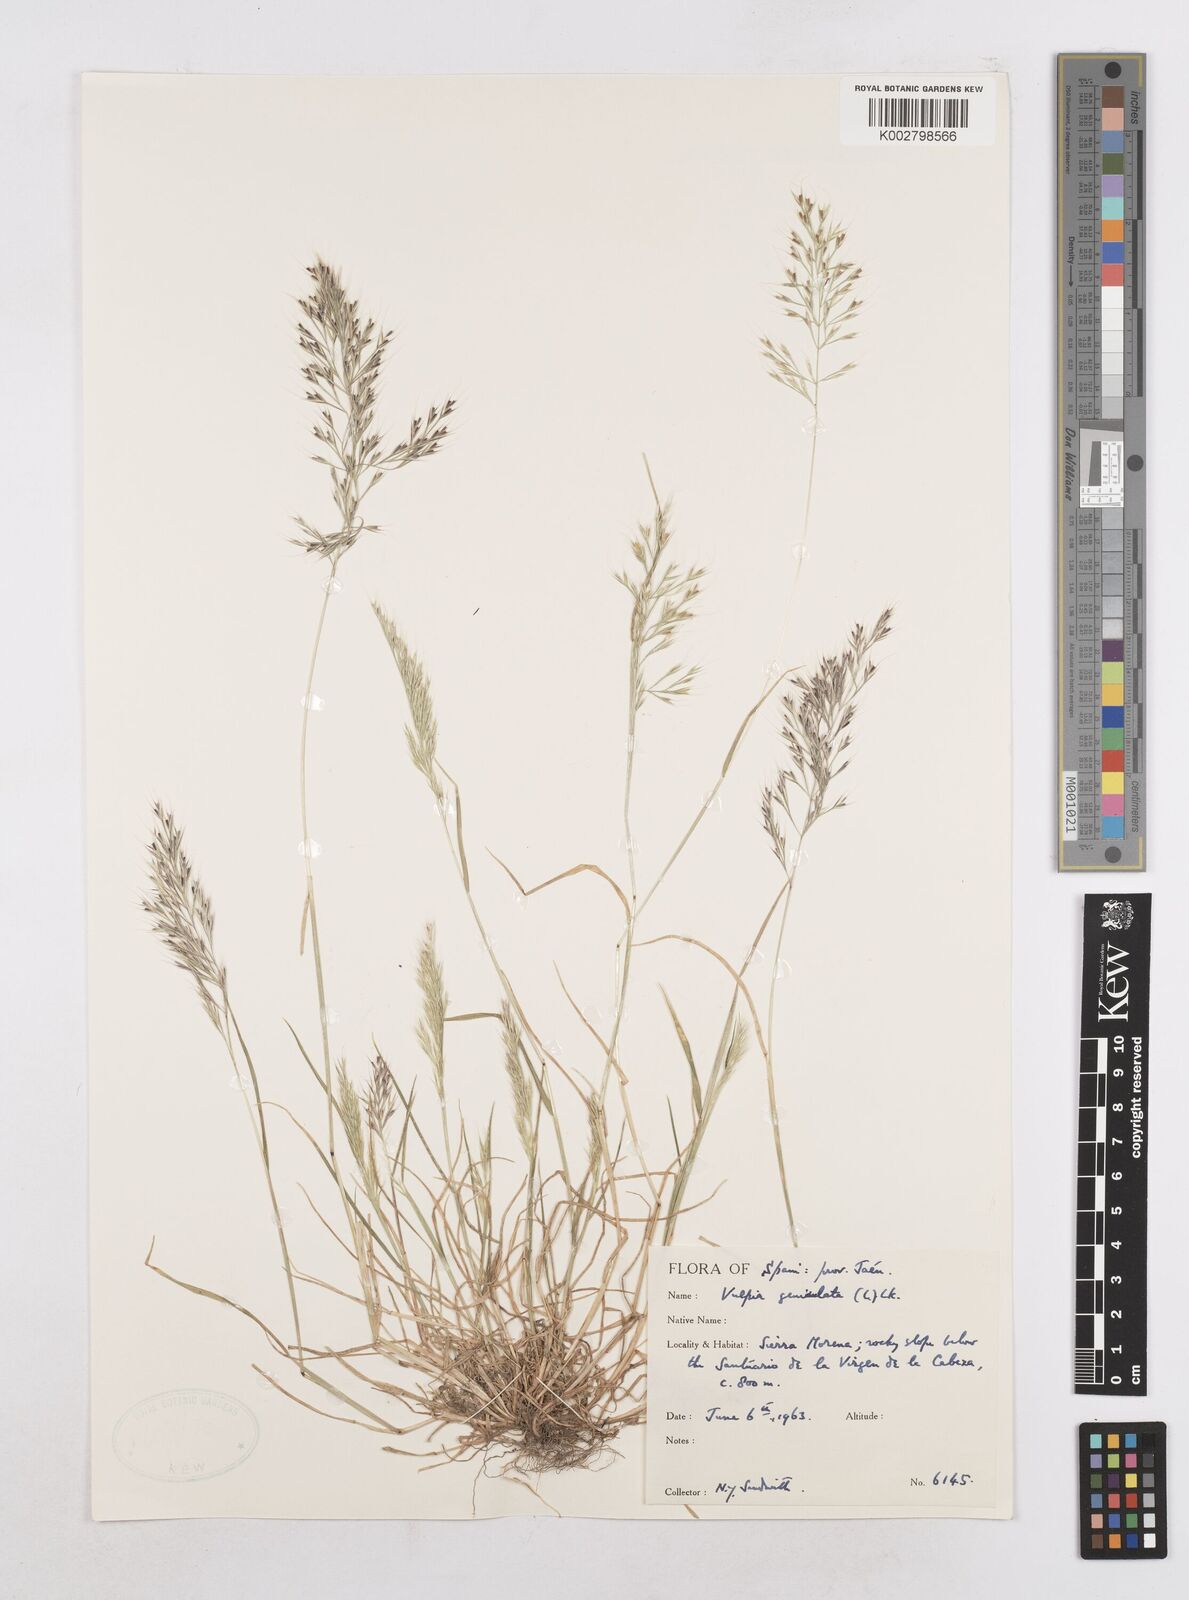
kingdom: Plantae
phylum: Tracheophyta
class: Liliopsida
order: Poales
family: Poaceae
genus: Festuca
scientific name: Festuca geniculata
